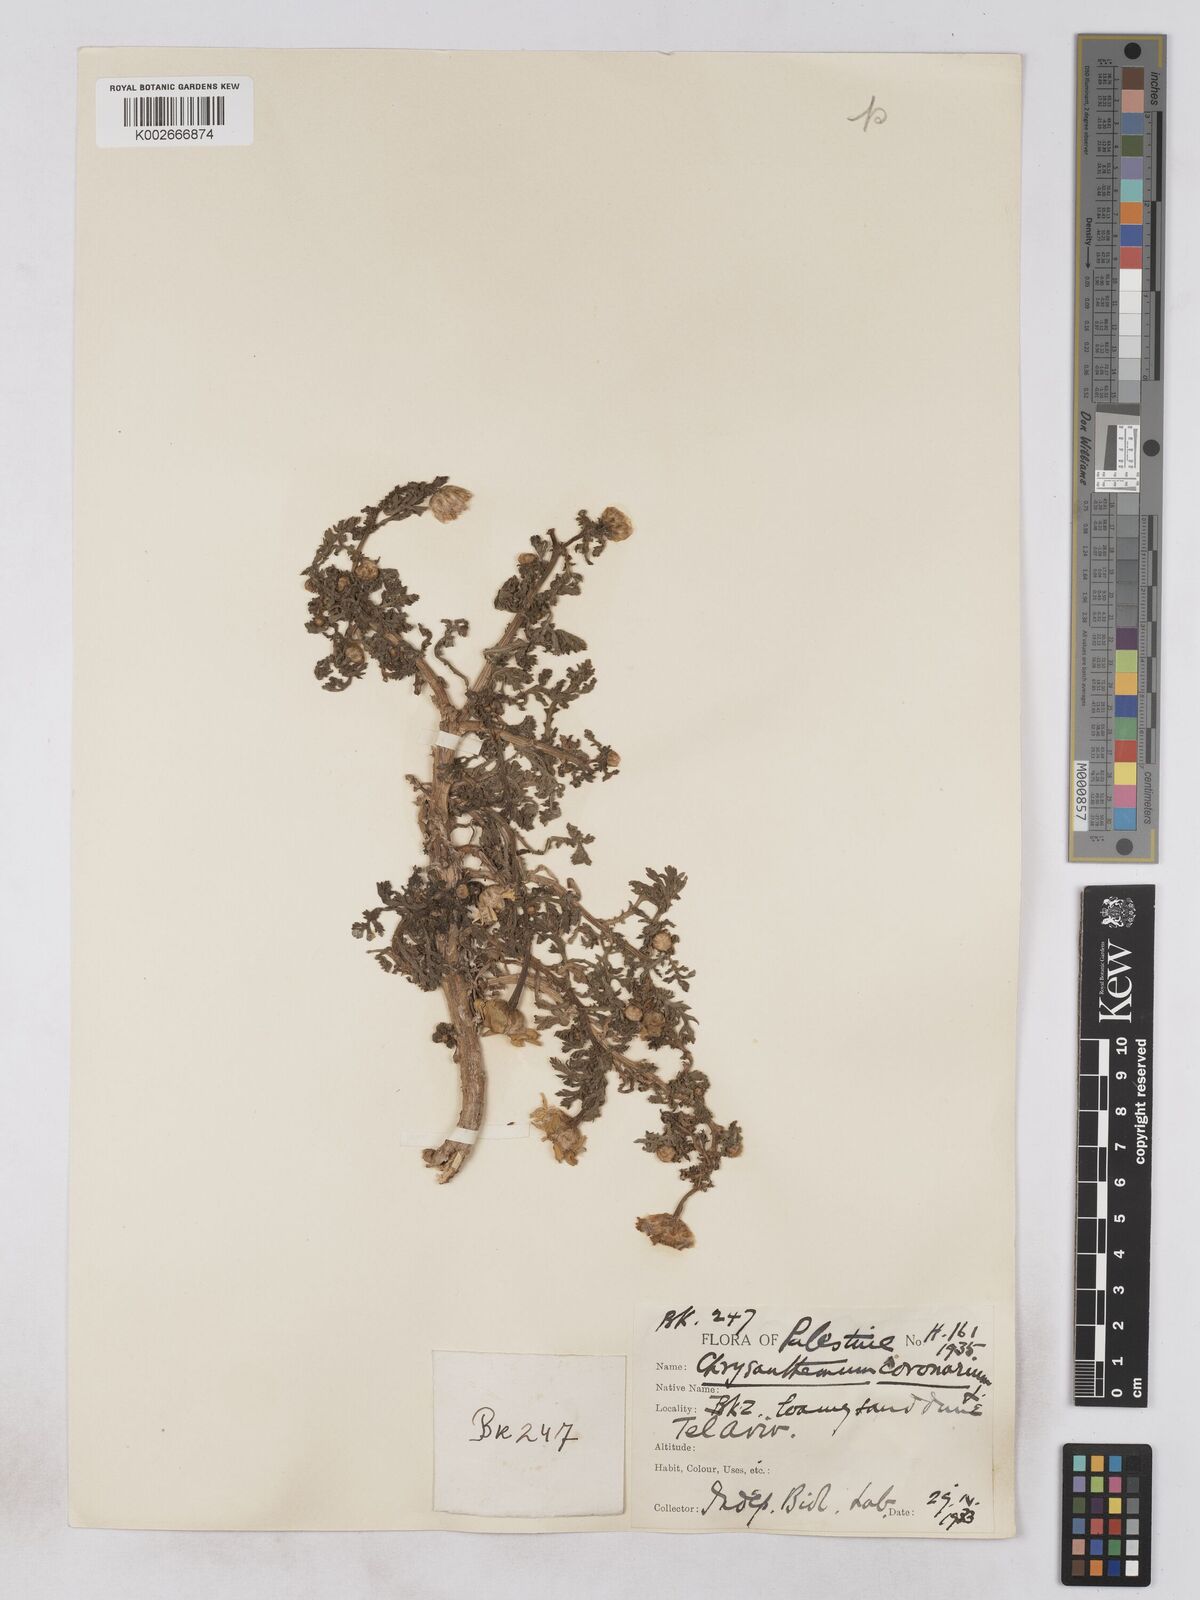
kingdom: Plantae
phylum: Tracheophyta
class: Magnoliopsida
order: Asterales
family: Asteraceae
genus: Glebionis
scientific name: Glebionis coronaria
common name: Crowndaisy
